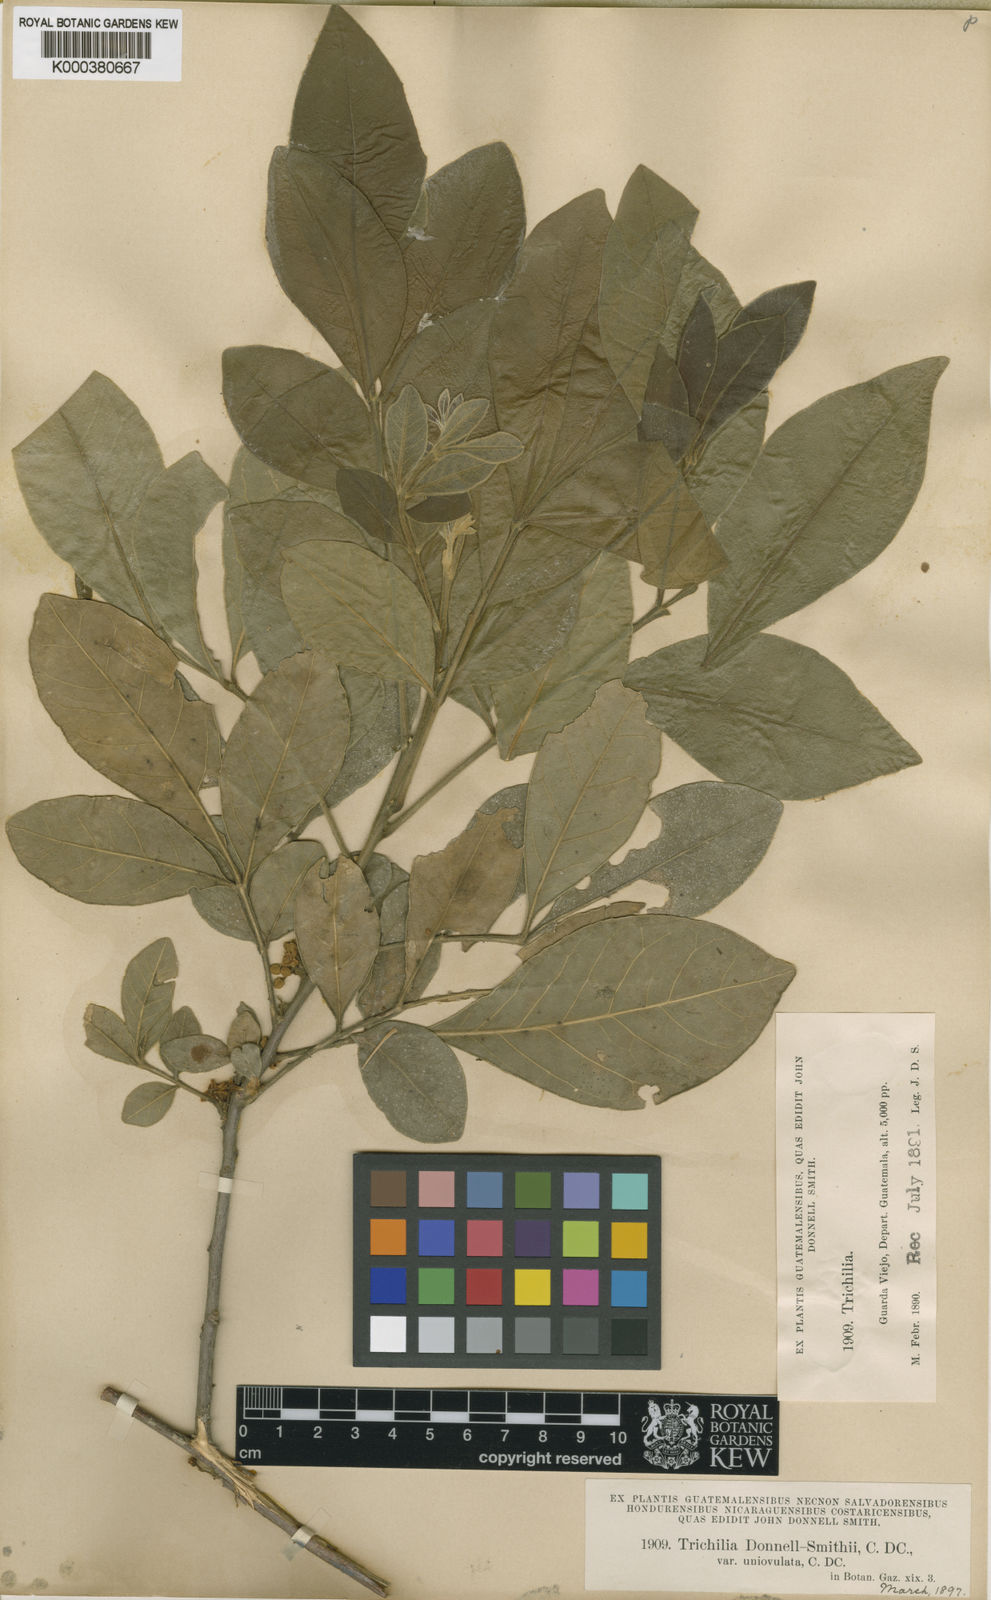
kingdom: Plantae
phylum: Tracheophyta
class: Magnoliopsida
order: Sapindales
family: Meliaceae
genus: Trichilia
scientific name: Trichilia havanensis
